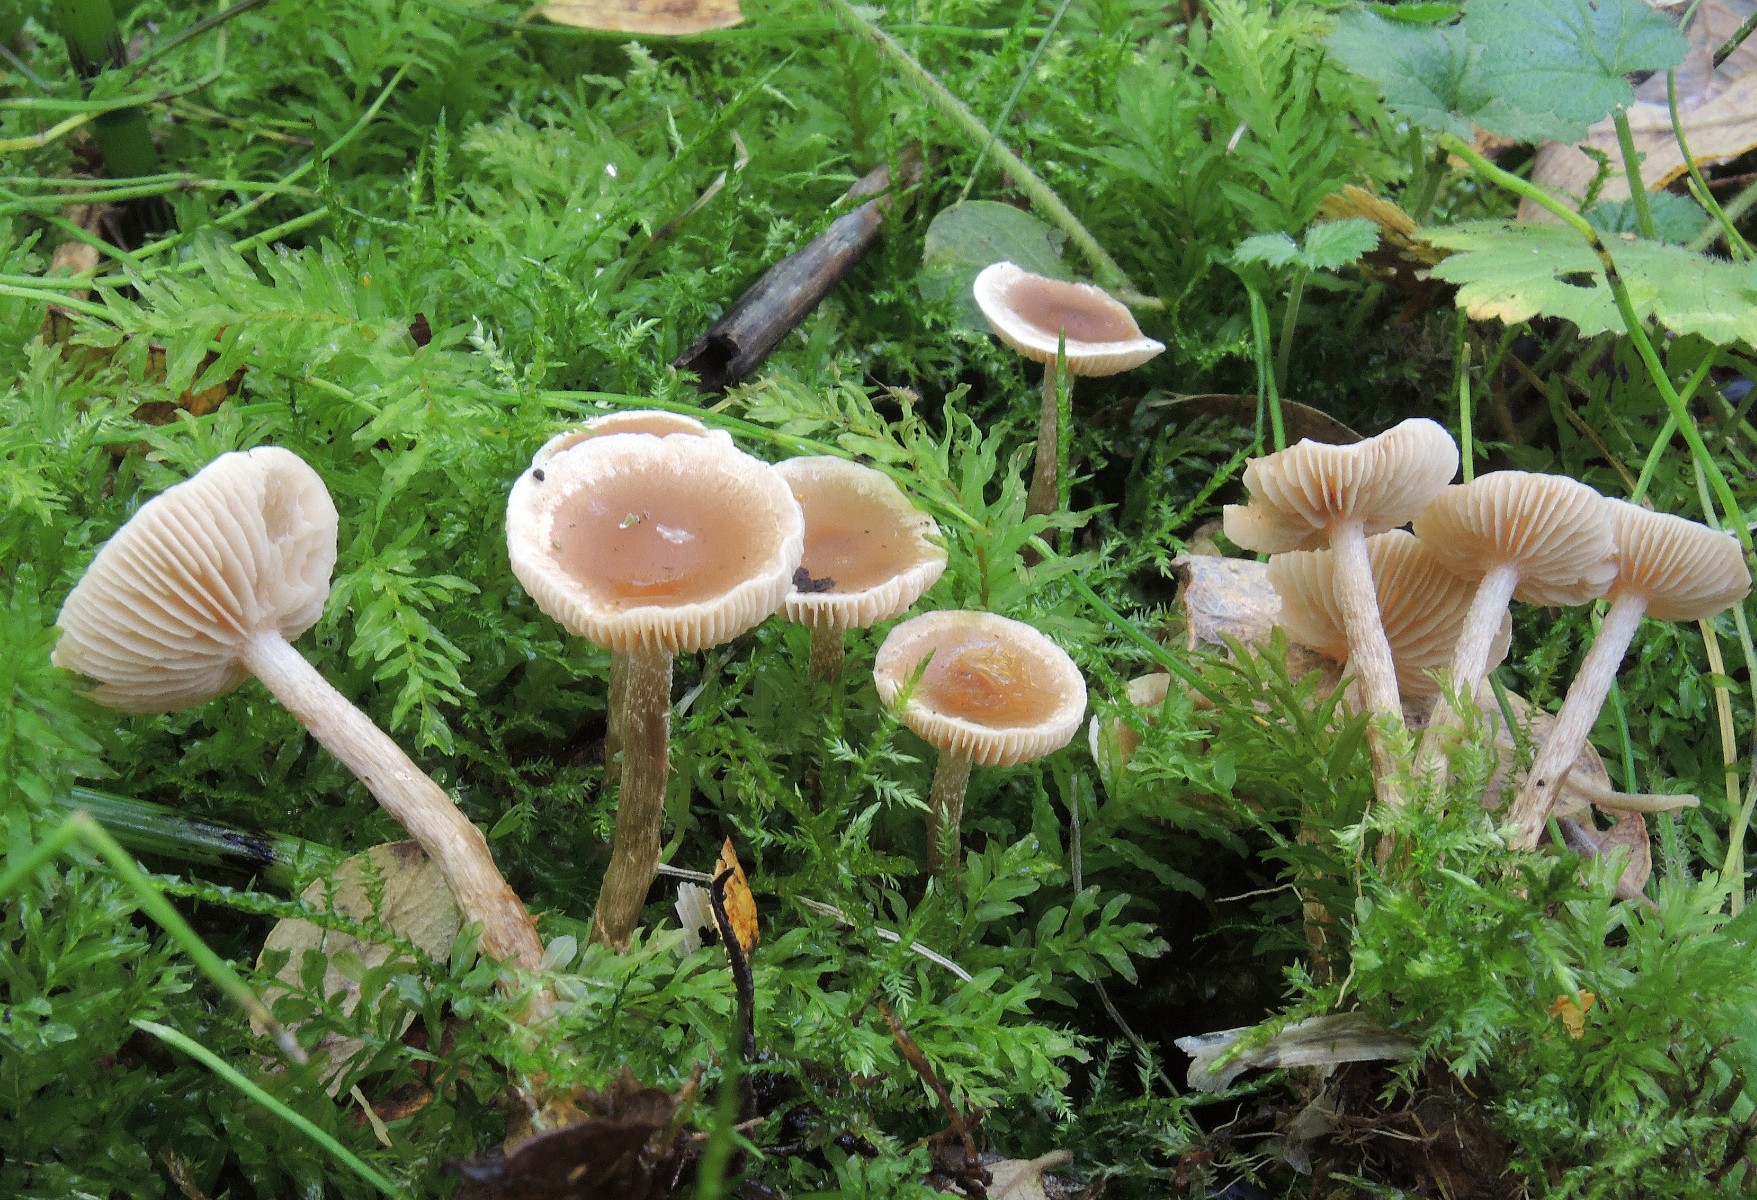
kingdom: Fungi
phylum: Basidiomycota
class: Agaricomycetes
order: Agaricales
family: Hymenogastraceae
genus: Hebeloma
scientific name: Hebeloma paludicola
